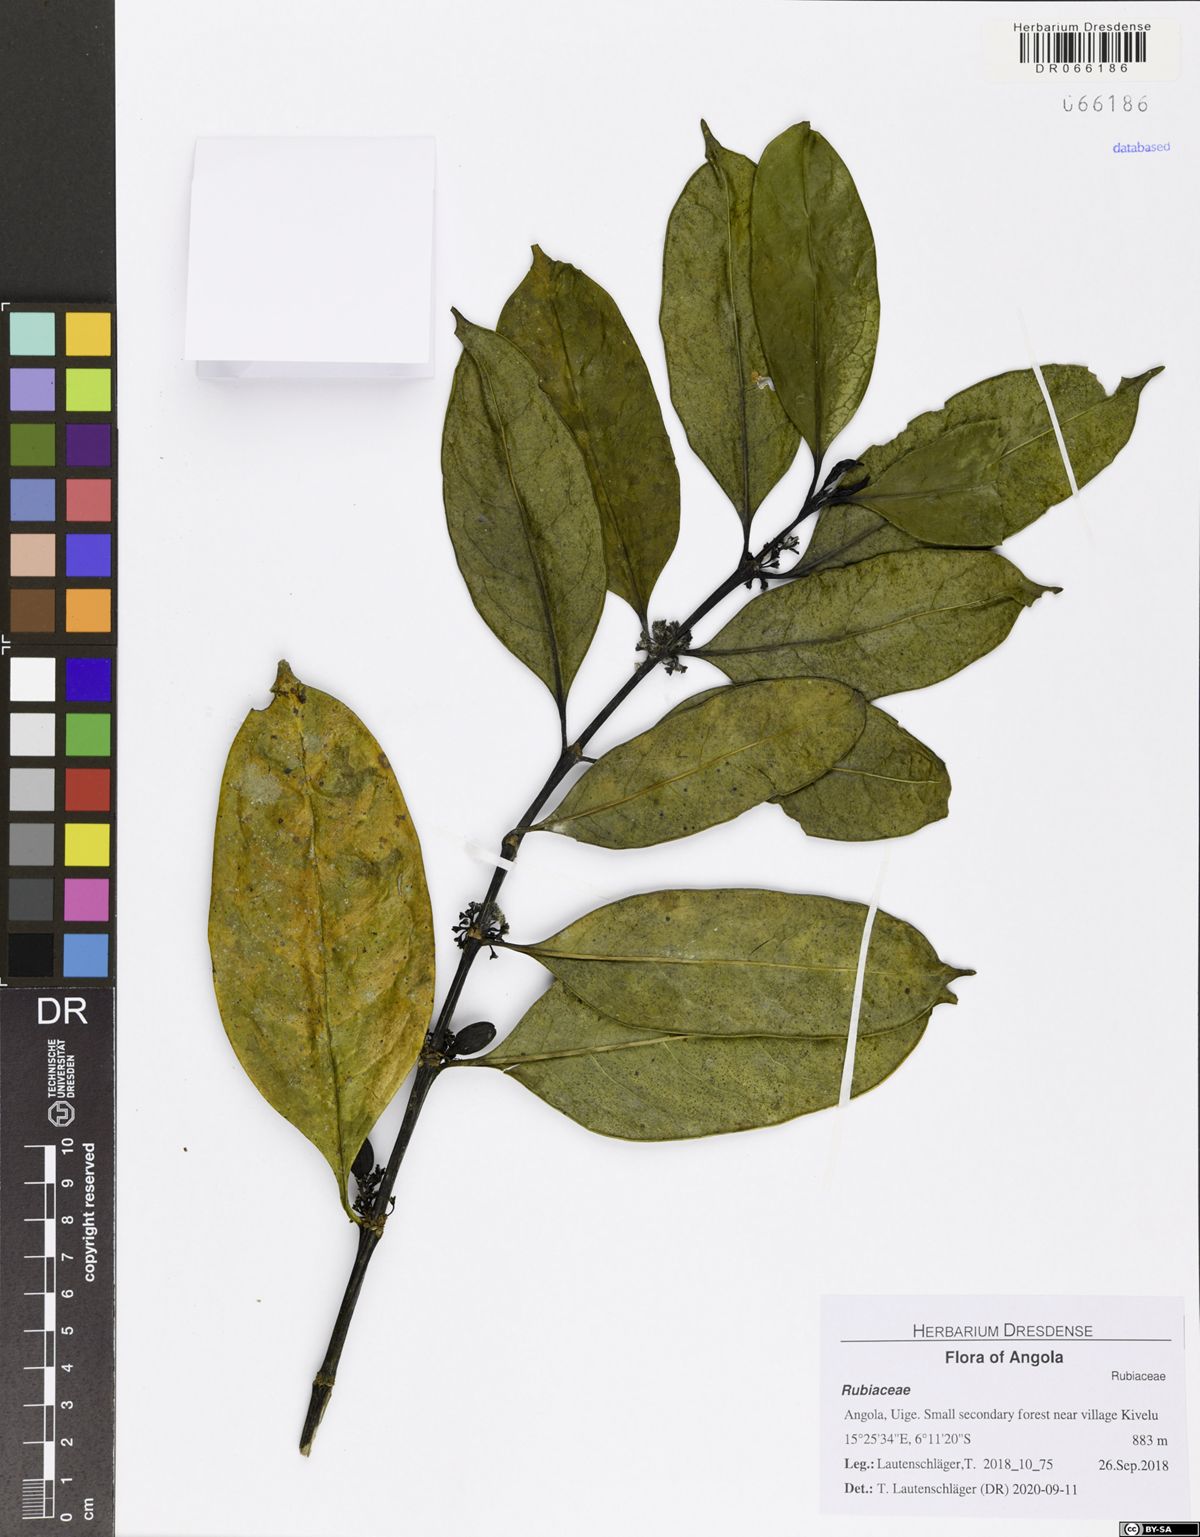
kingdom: Plantae
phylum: Tracheophyta
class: Magnoliopsida
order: Gentianales
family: Rubiaceae
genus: Colletoecema
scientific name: Colletoecema tortistilum
